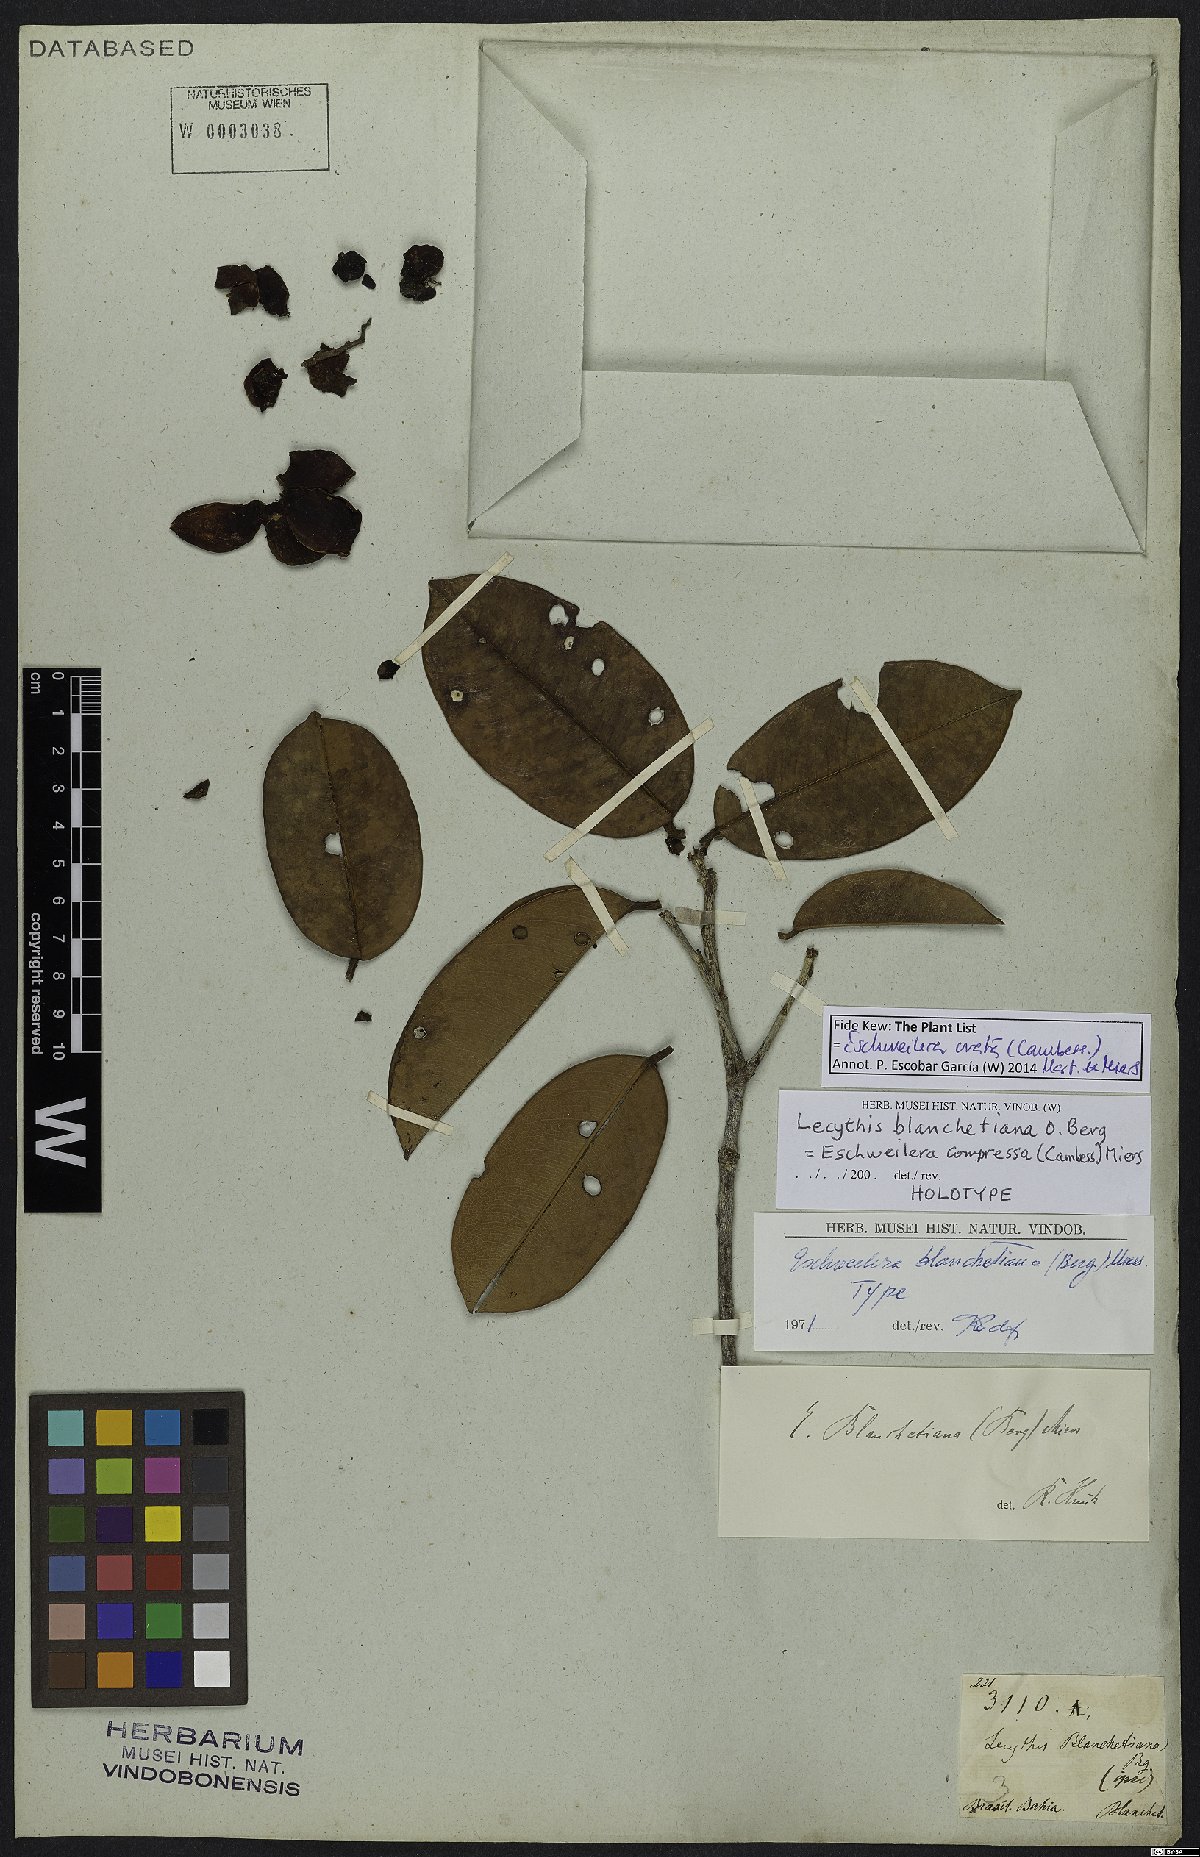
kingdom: Plantae
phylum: Tracheophyta
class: Magnoliopsida
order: Ericales
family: Lecythidaceae
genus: Eschweilera
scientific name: Eschweilera ovata
